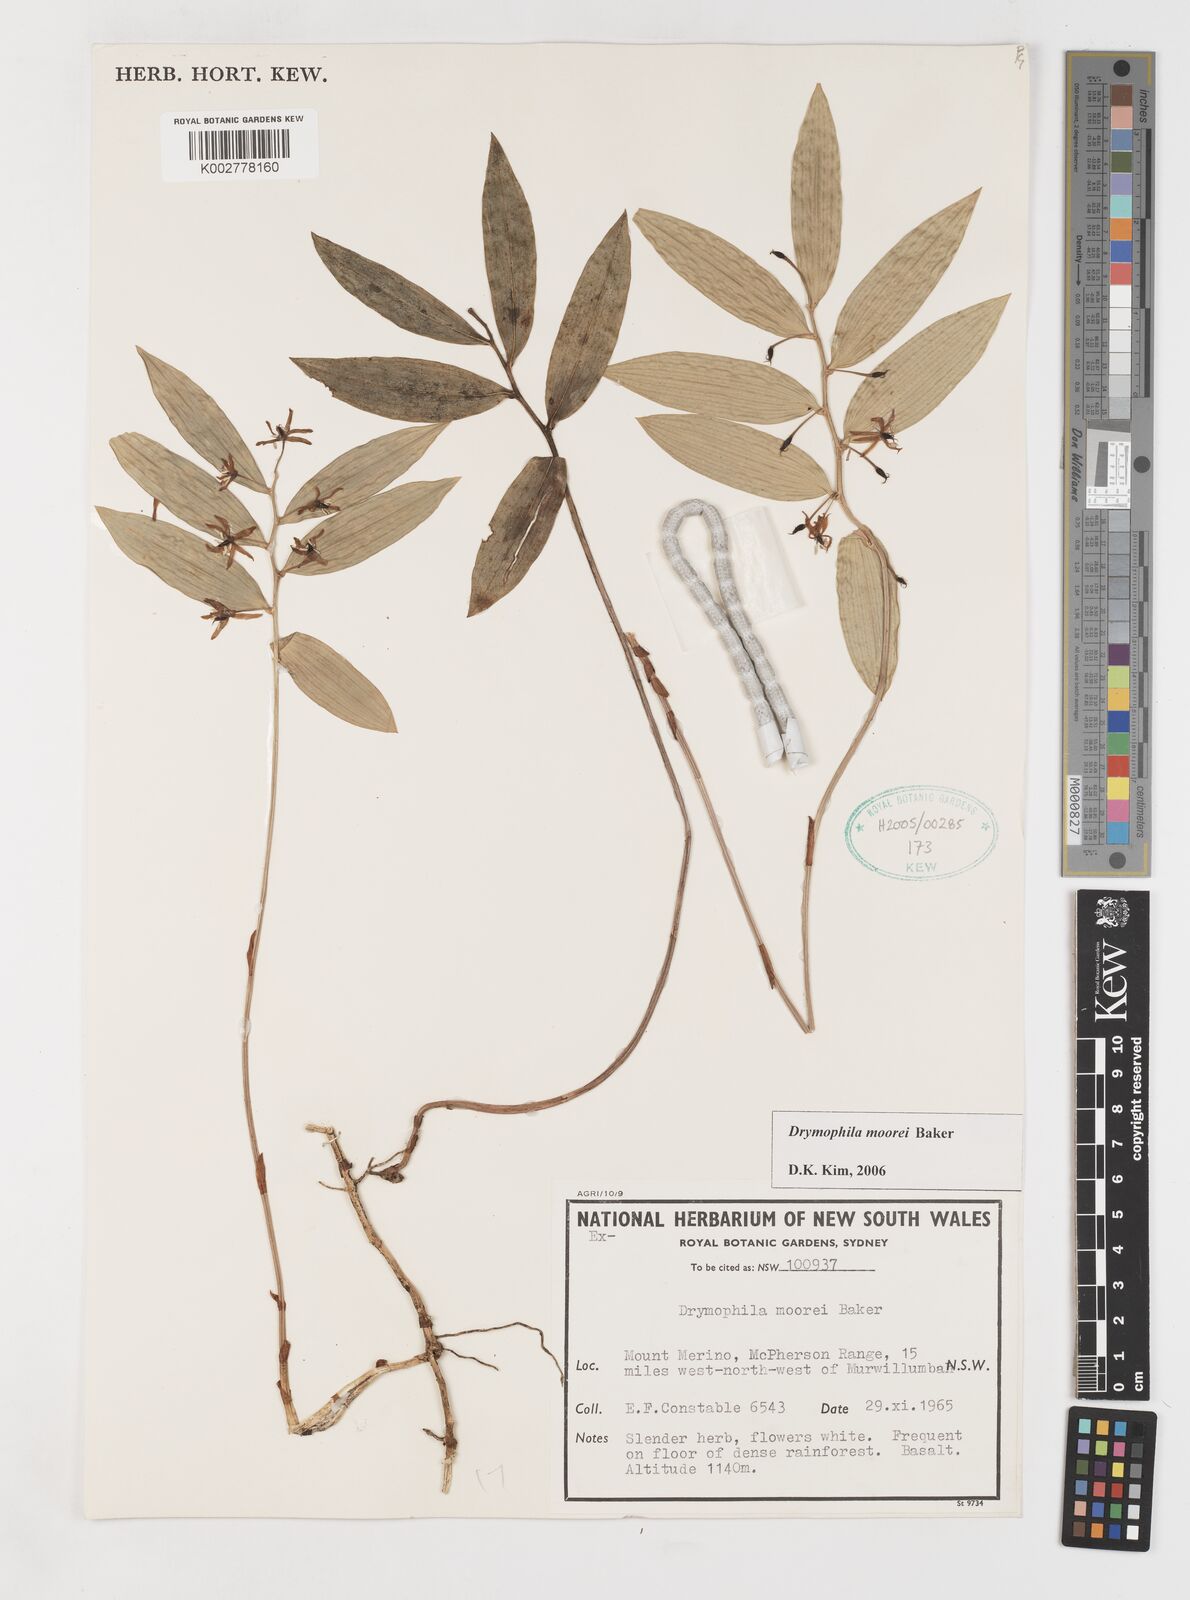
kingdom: Plantae
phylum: Tracheophyta
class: Liliopsida
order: Liliales
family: Alstroemeriaceae
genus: Drymophila
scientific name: Drymophila moorei
